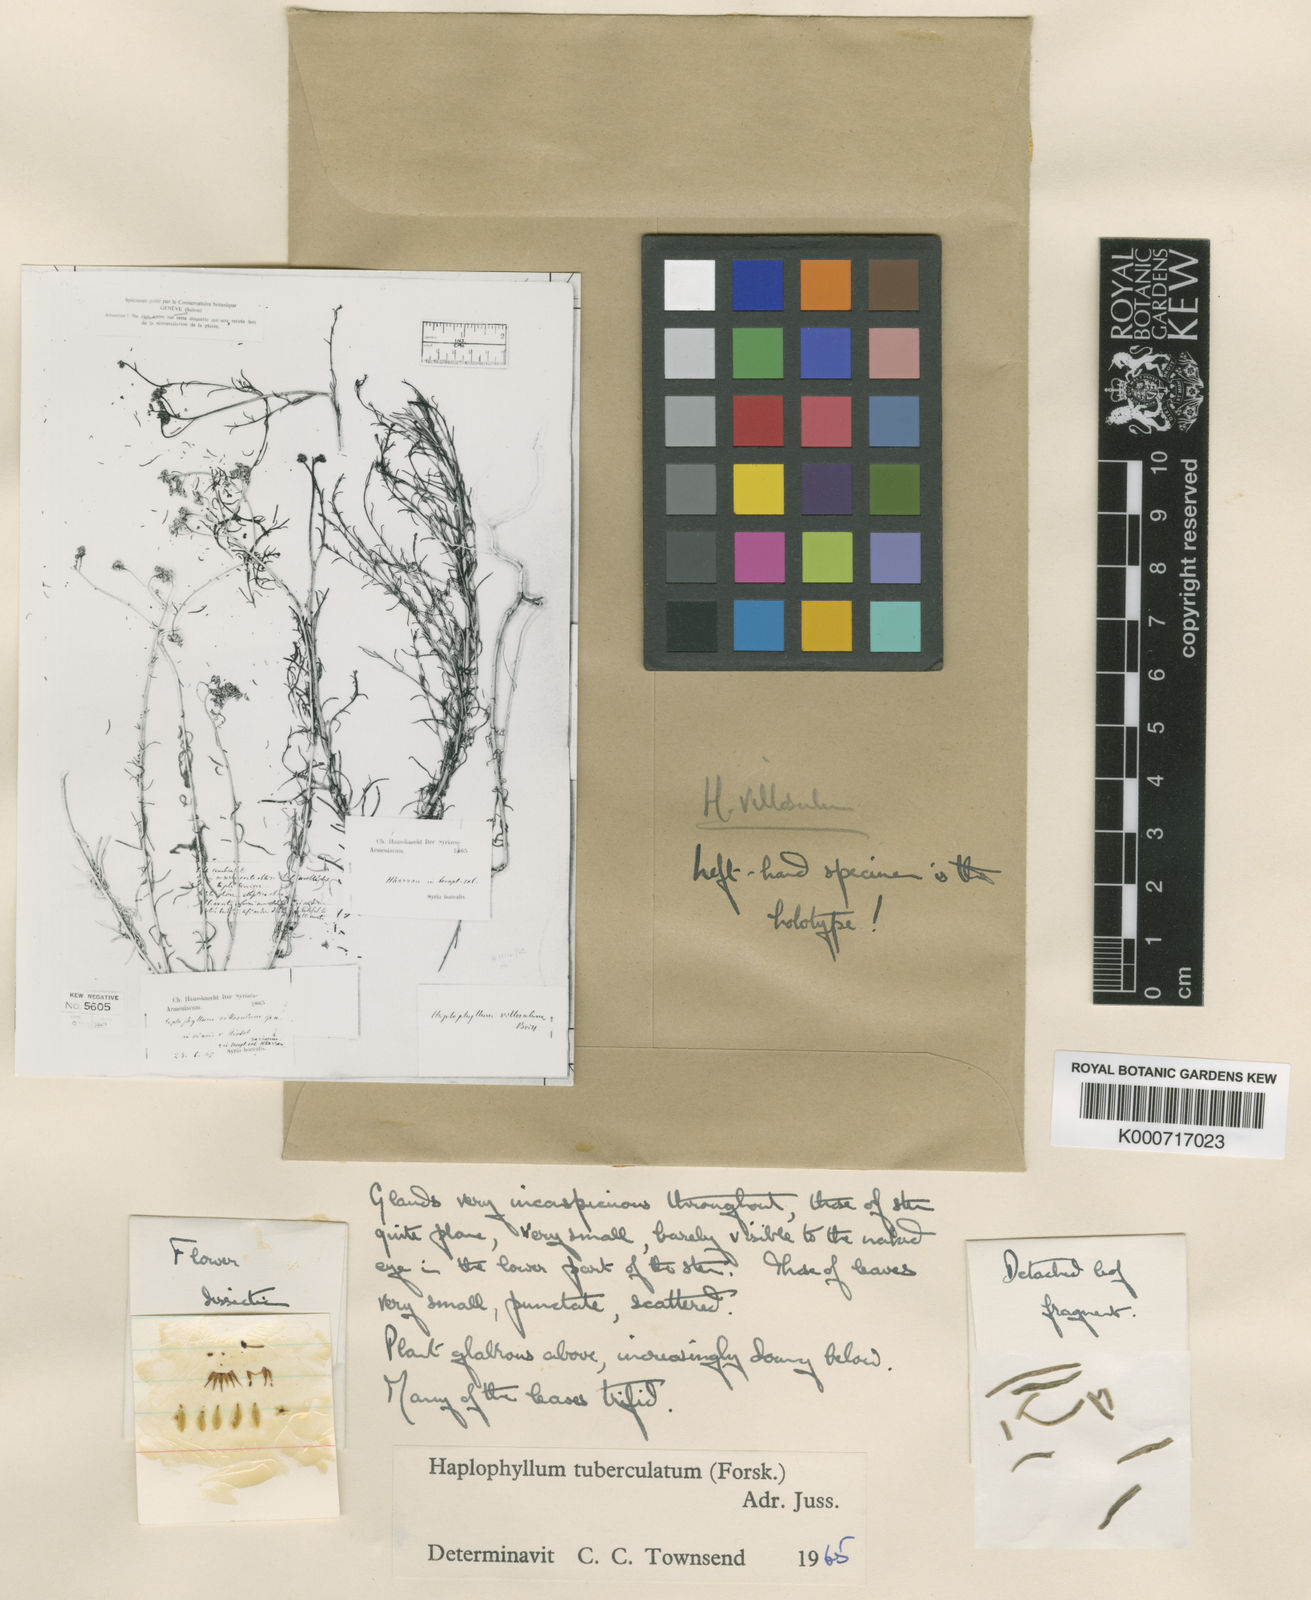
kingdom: Plantae
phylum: Tracheophyta
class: Magnoliopsida
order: Sapindales
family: Rutaceae
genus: Haplophyllum
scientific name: Haplophyllum tuberculatum
